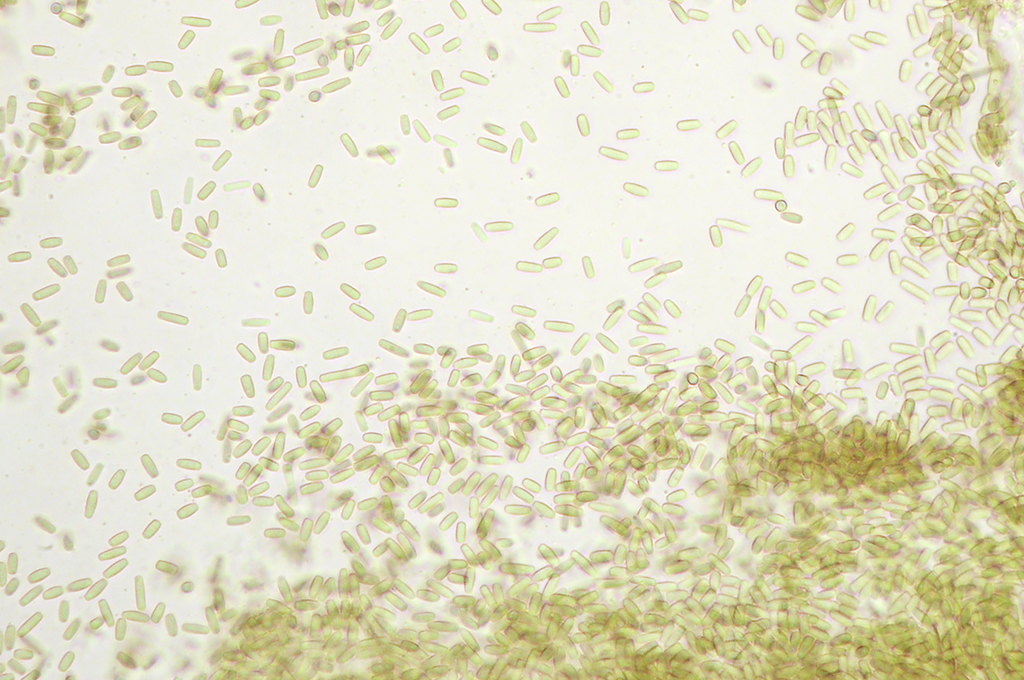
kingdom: Fungi
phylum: Ascomycota
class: Lecanoromycetes
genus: Trullula
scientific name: Trullula melanochlora
